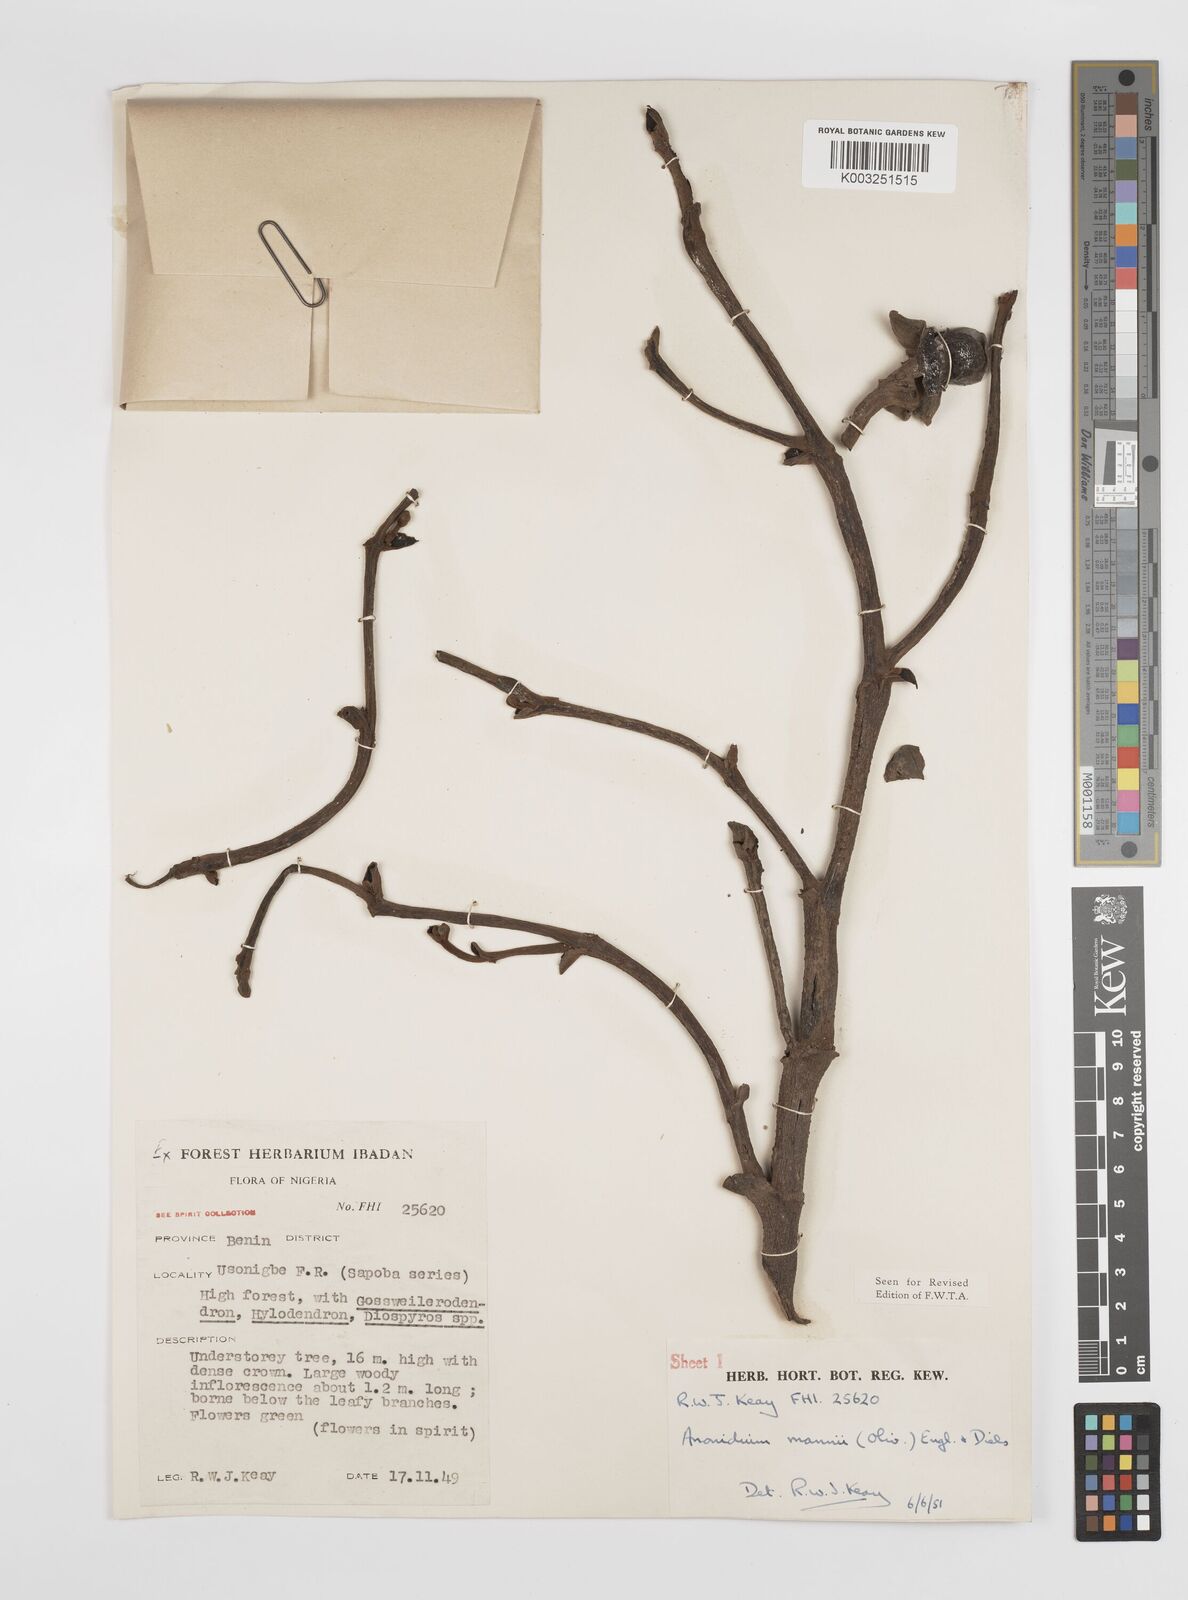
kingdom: Plantae
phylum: Tracheophyta
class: Magnoliopsida
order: Magnoliales
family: Annonaceae
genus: Anonidium
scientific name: Anonidium mannii
